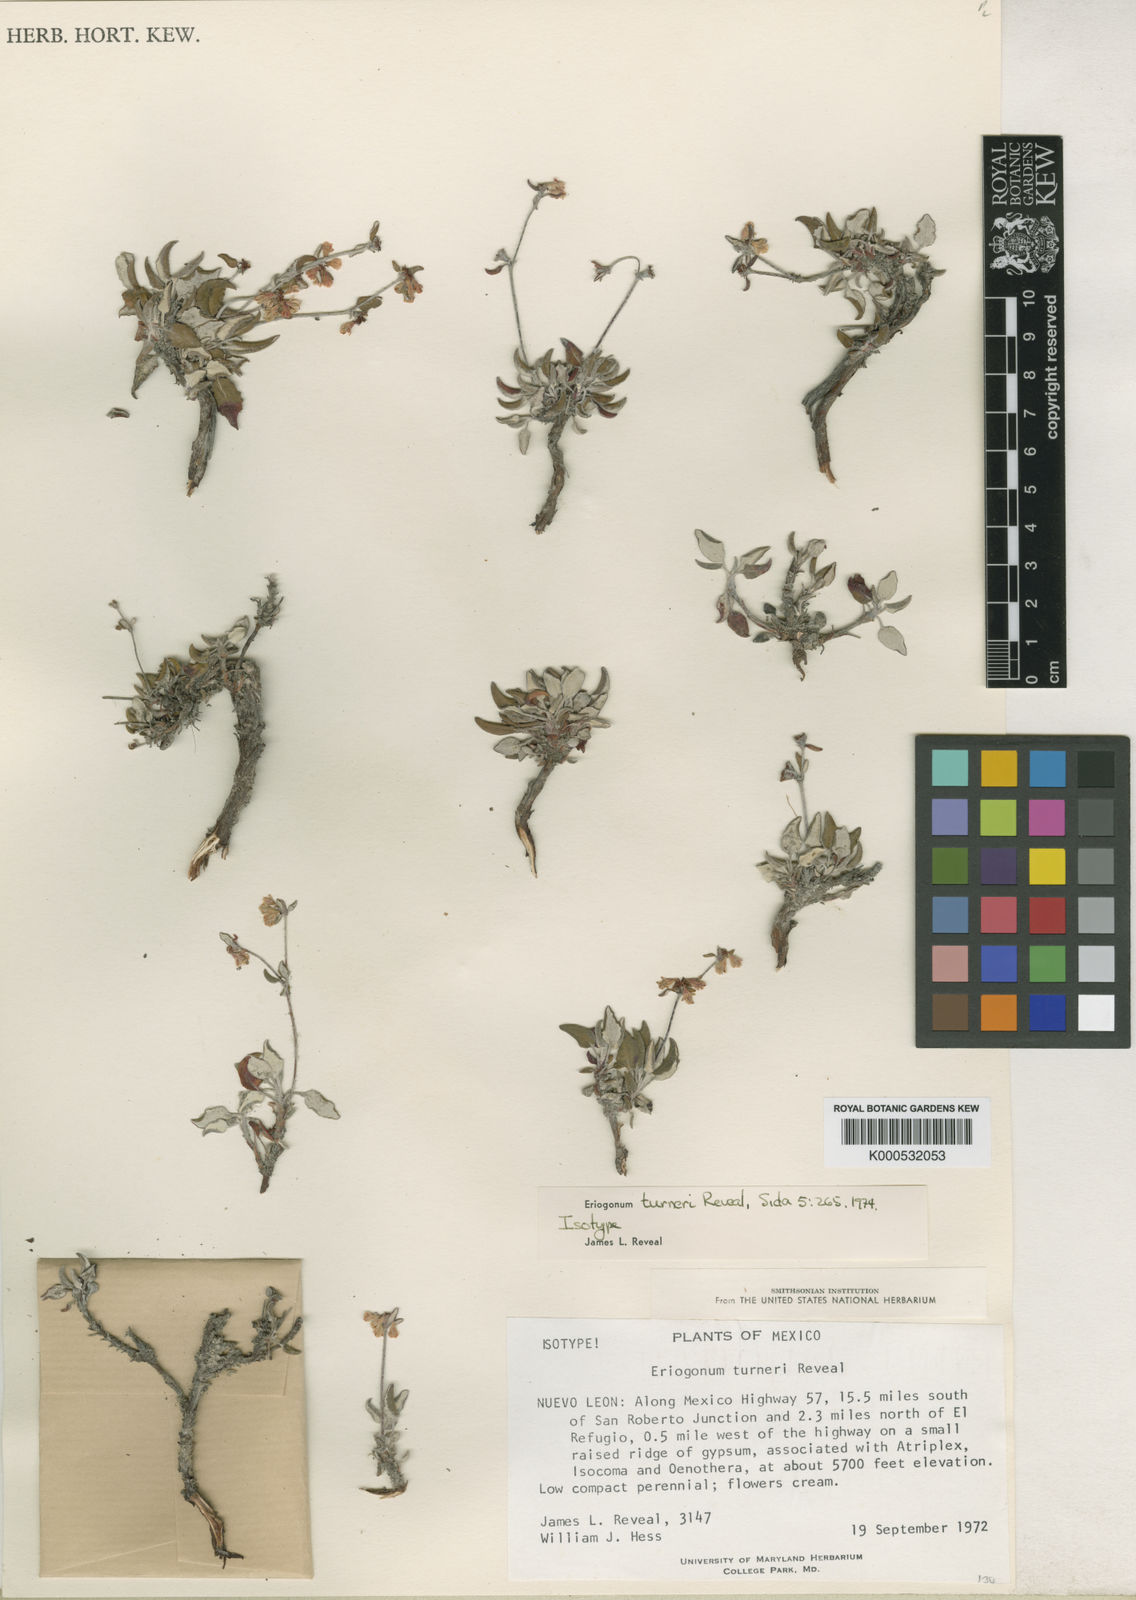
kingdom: Plantae
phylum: Tracheophyta
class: Magnoliopsida
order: Caryophyllales
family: Polygonaceae
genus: Eriogonum
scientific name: Eriogonum turneri
